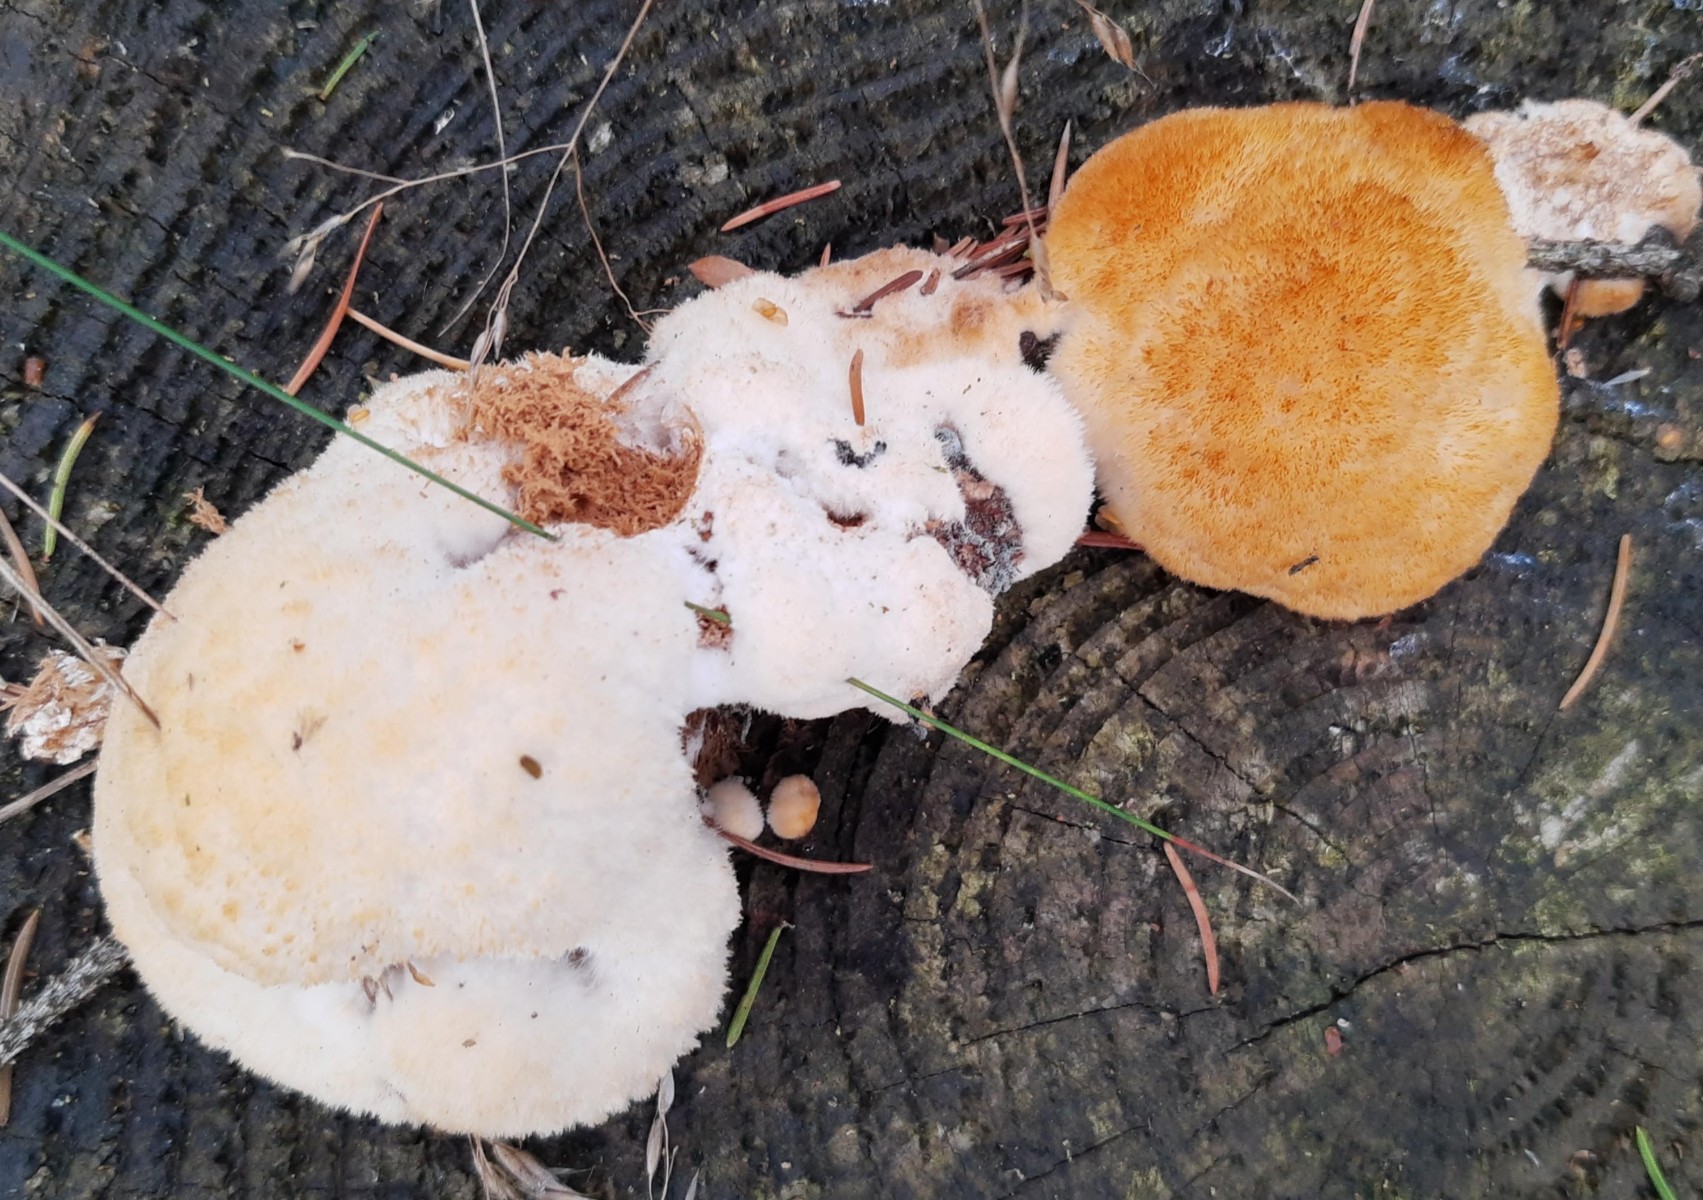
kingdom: Fungi
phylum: Basidiomycota
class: Agaricomycetes
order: Polyporales
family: Dacryobolaceae
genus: Postia
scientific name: Postia ptychogaster
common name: støvende kødporesvamp
